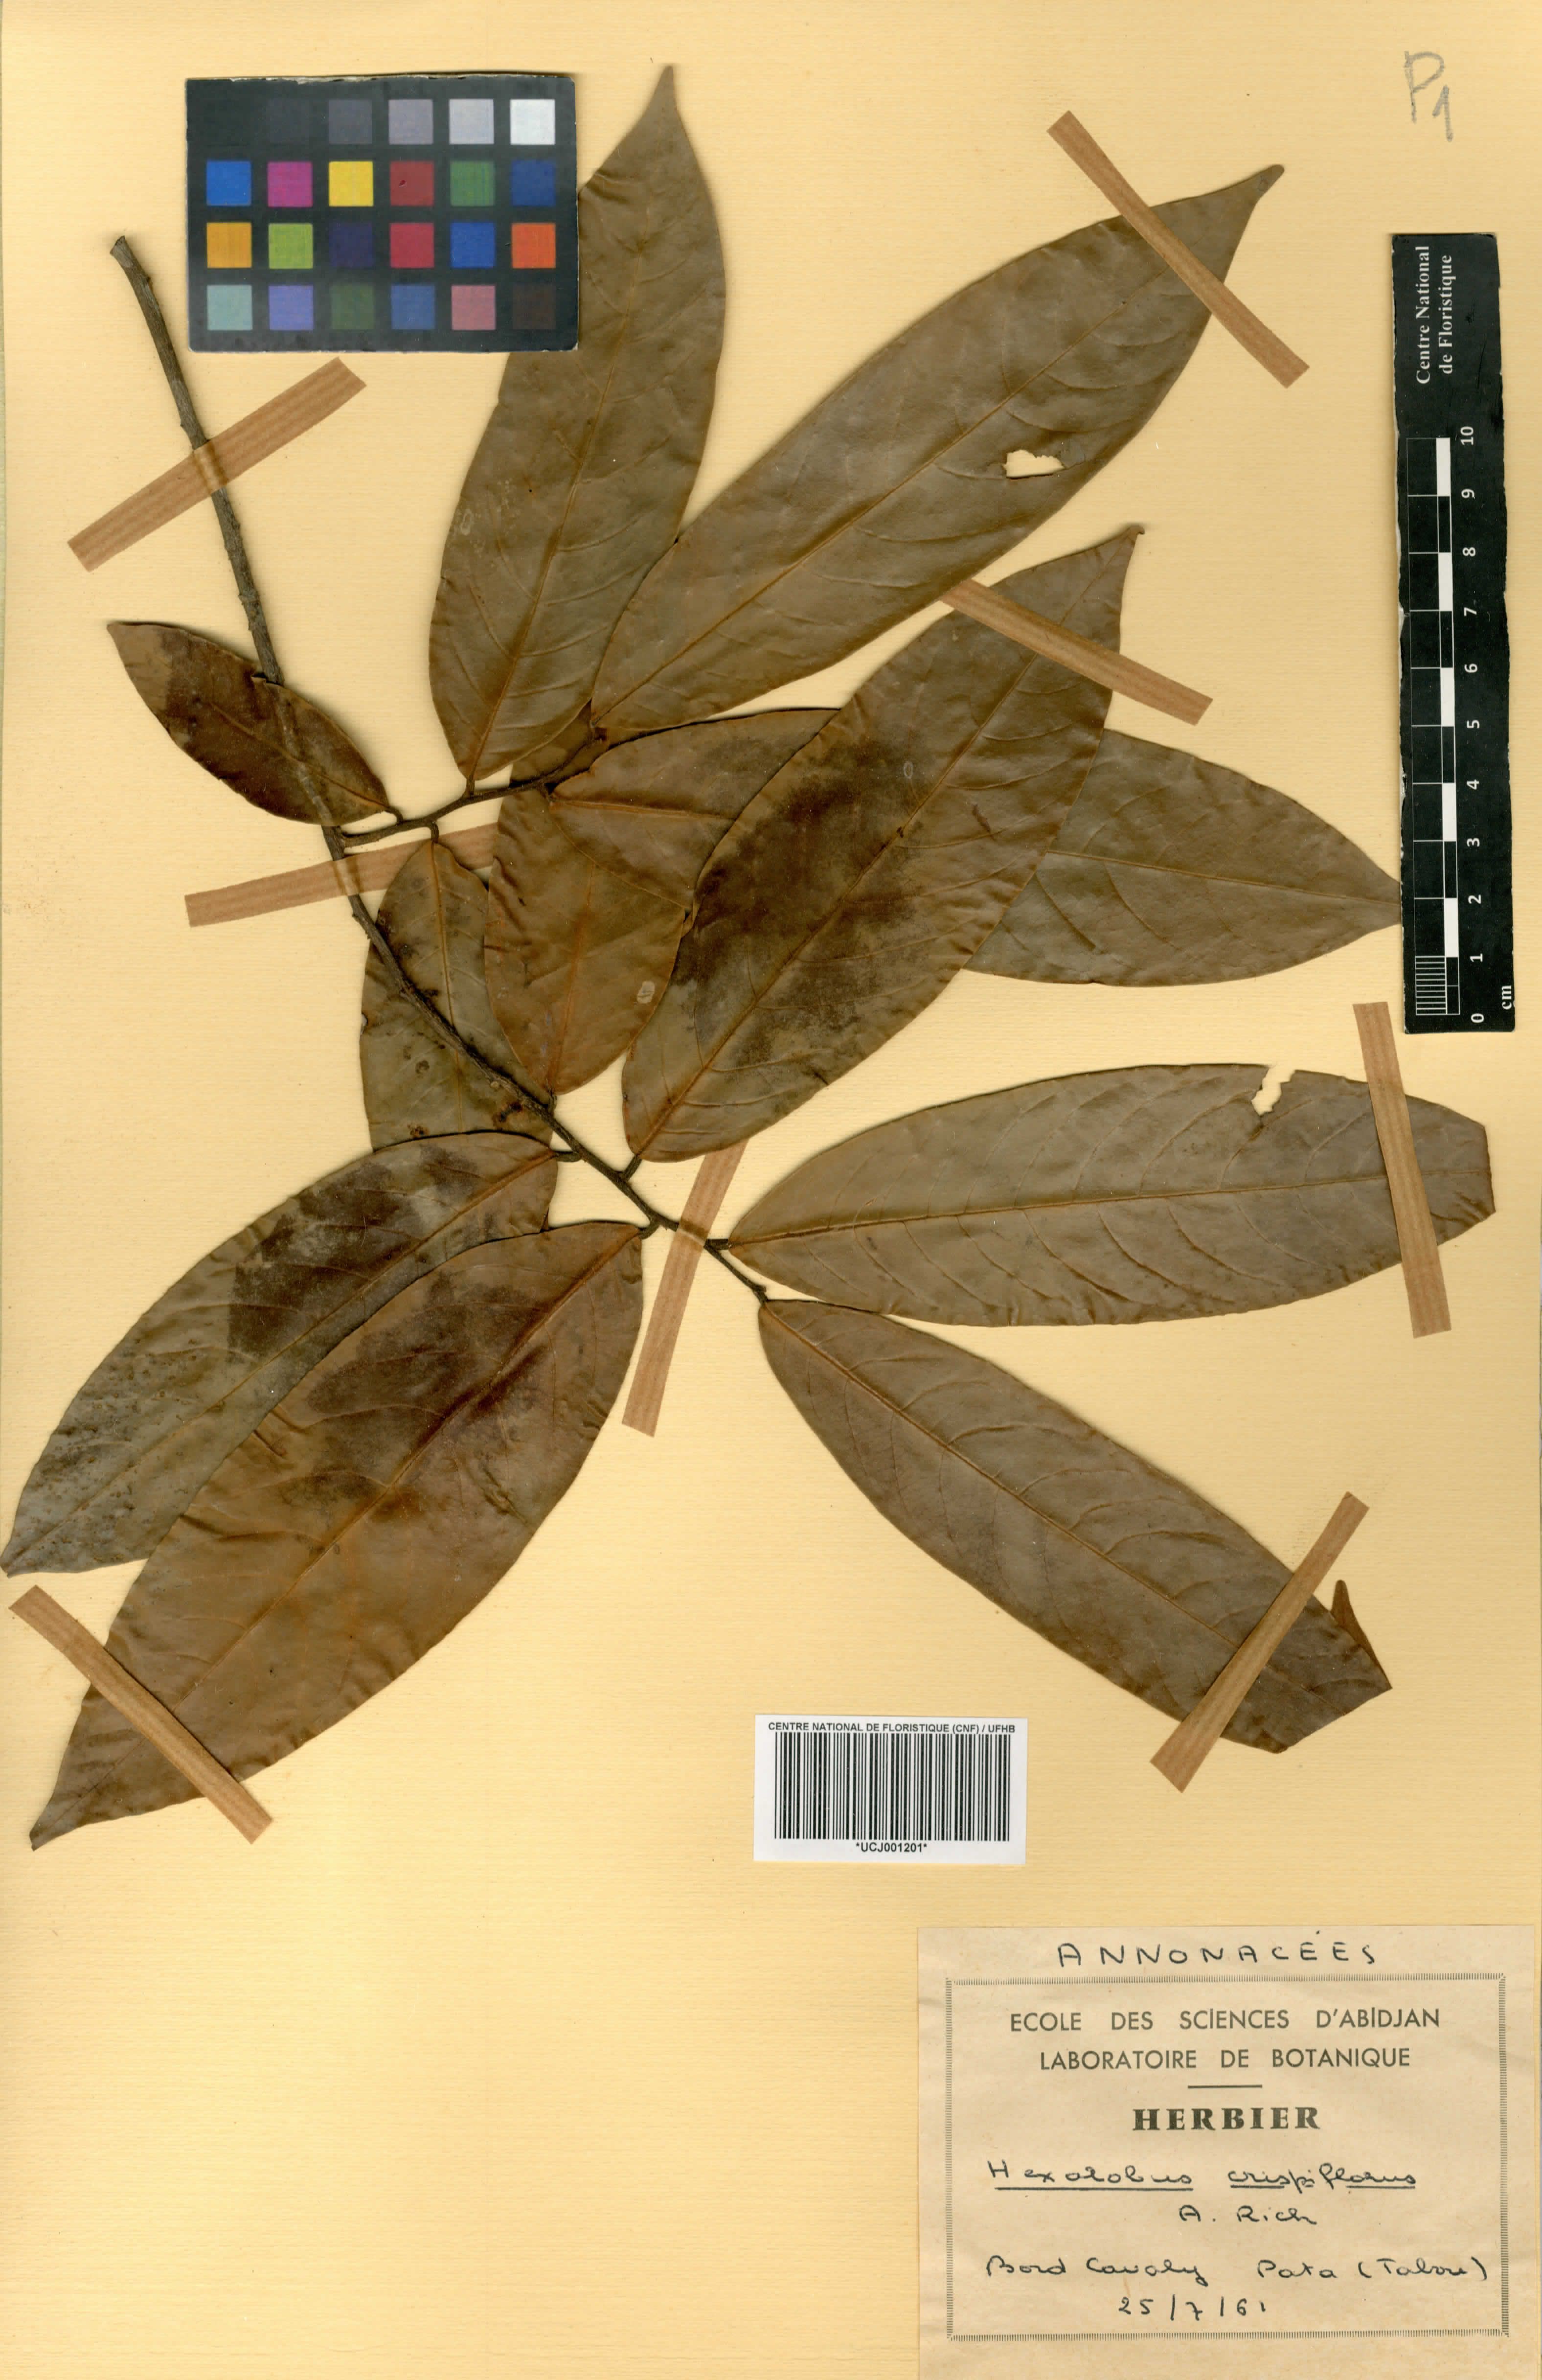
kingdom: Plantae
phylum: Tracheophyta
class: Magnoliopsida
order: Magnoliales
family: Annonaceae
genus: Hexalobus
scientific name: Hexalobus crispiflorus
